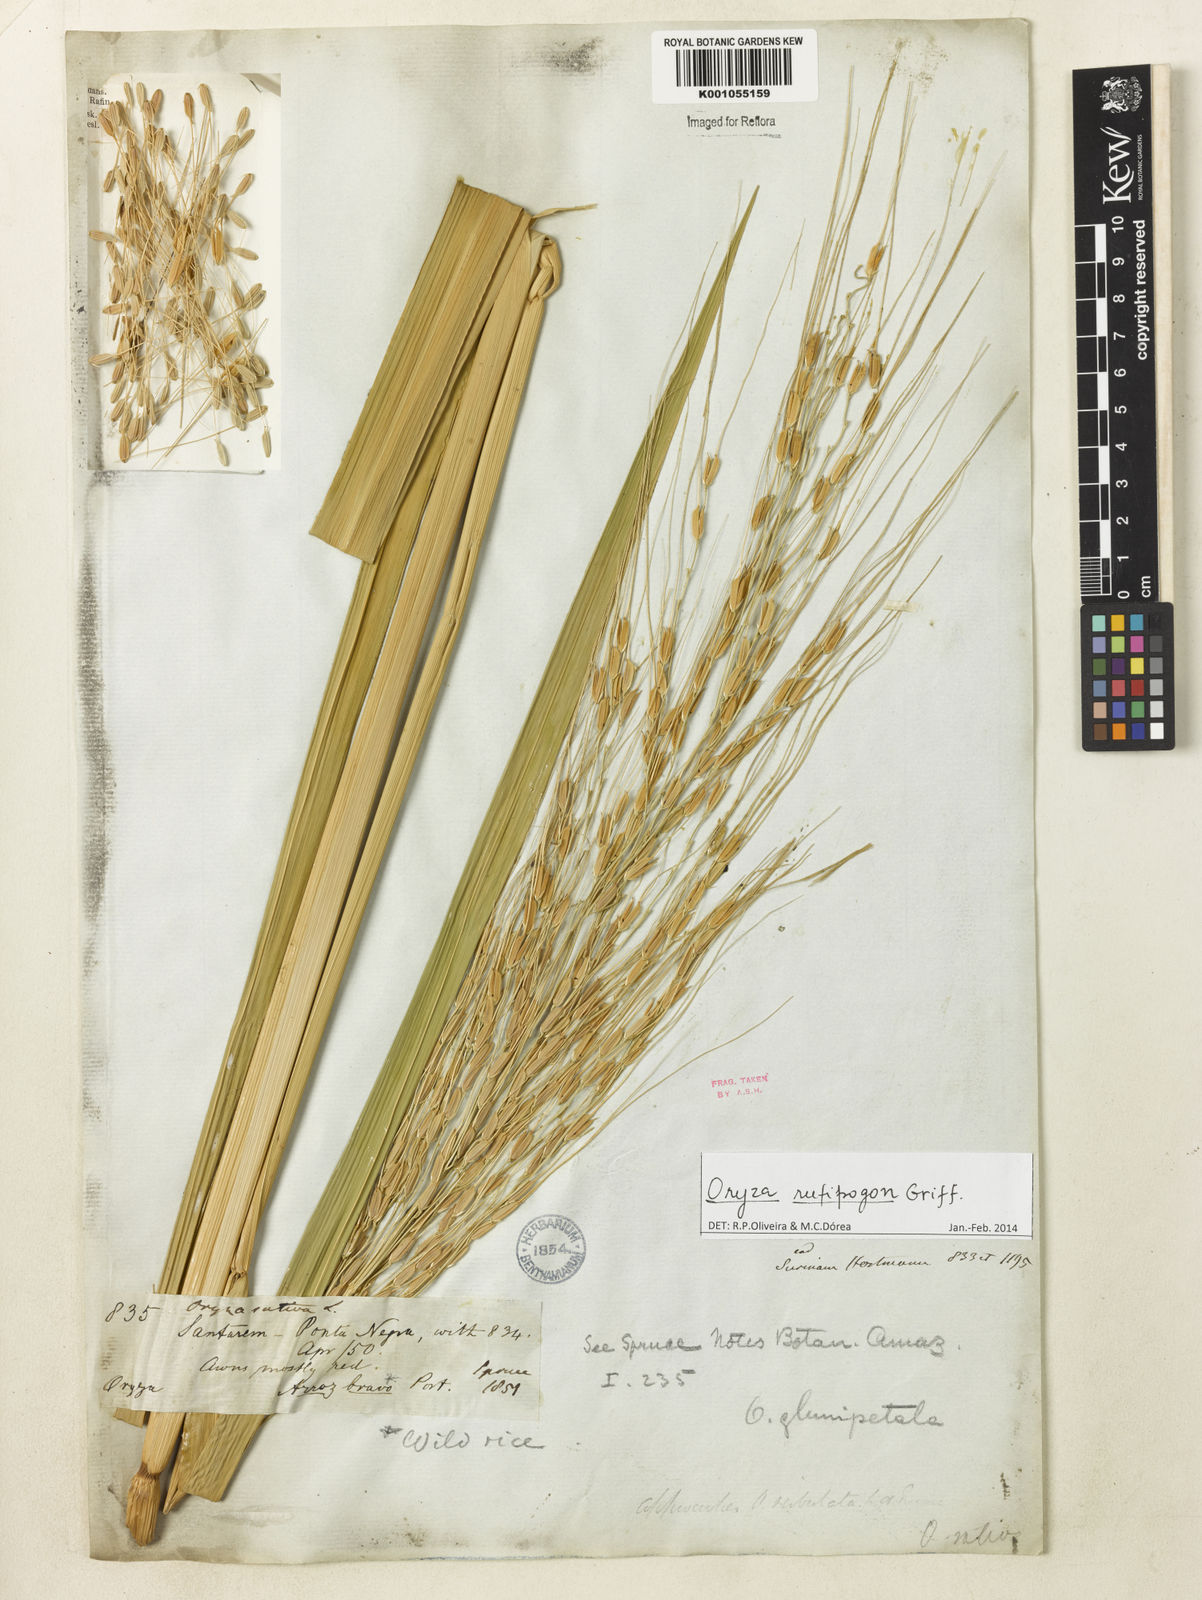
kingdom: Plantae
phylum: Tracheophyta
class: Liliopsida
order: Poales
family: Poaceae
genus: Oryza
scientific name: Oryza rufipogon
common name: Red rice
